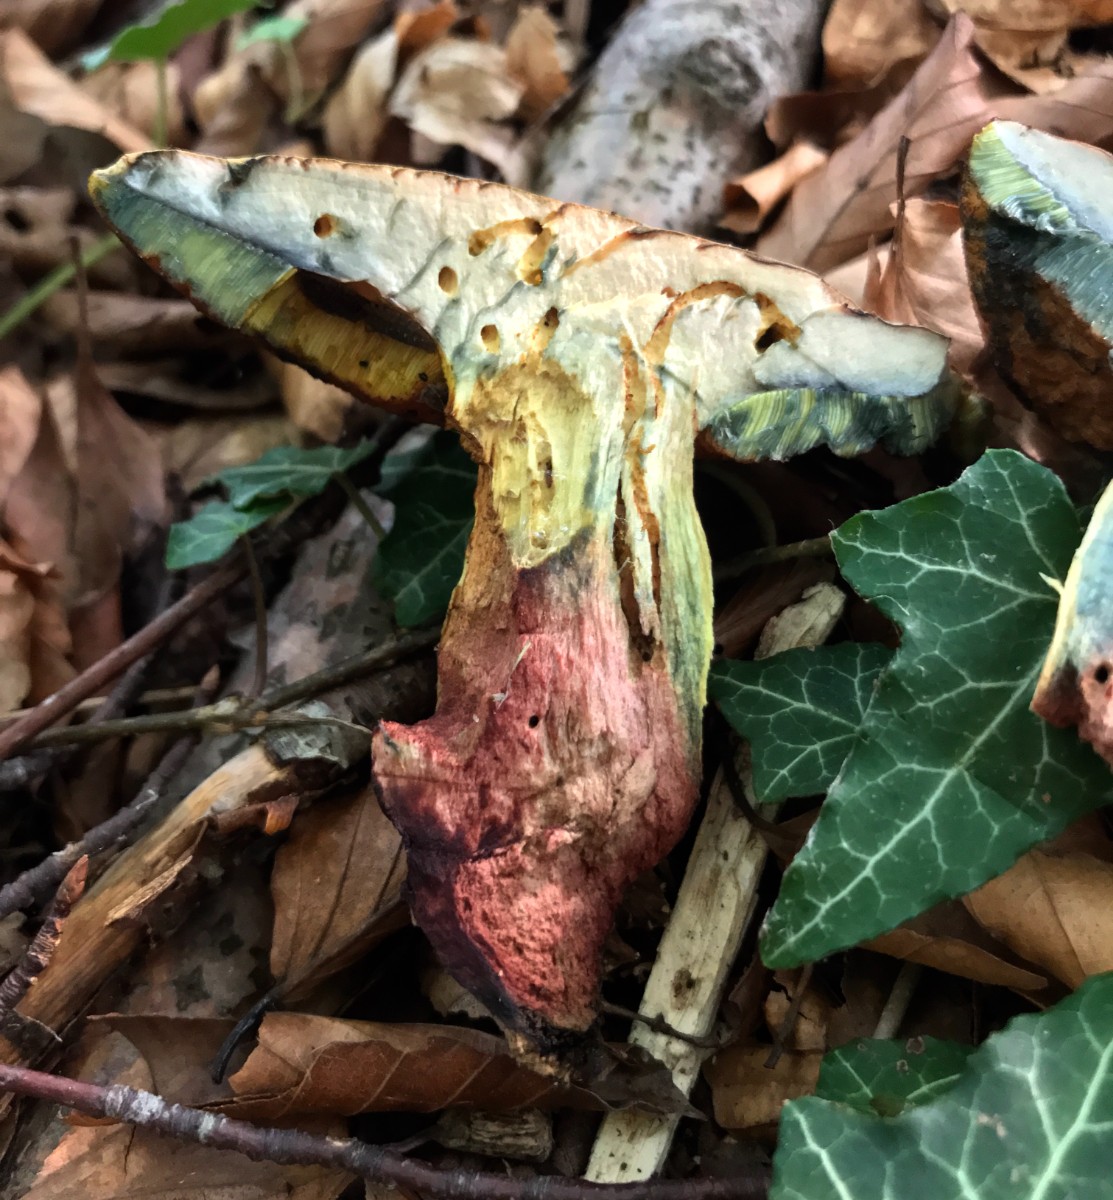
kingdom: Fungi
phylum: Basidiomycota
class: Agaricomycetes
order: Boletales
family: Boletaceae
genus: Suillellus
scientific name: Suillellus luridus
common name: netstokket indigorørhat
